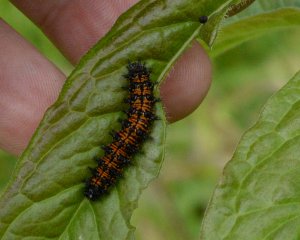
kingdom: Animalia
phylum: Arthropoda
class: Insecta
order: Lepidoptera
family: Nymphalidae
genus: Chlosyne
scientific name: Chlosyne harrisii
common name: Harris's Checkerspot
